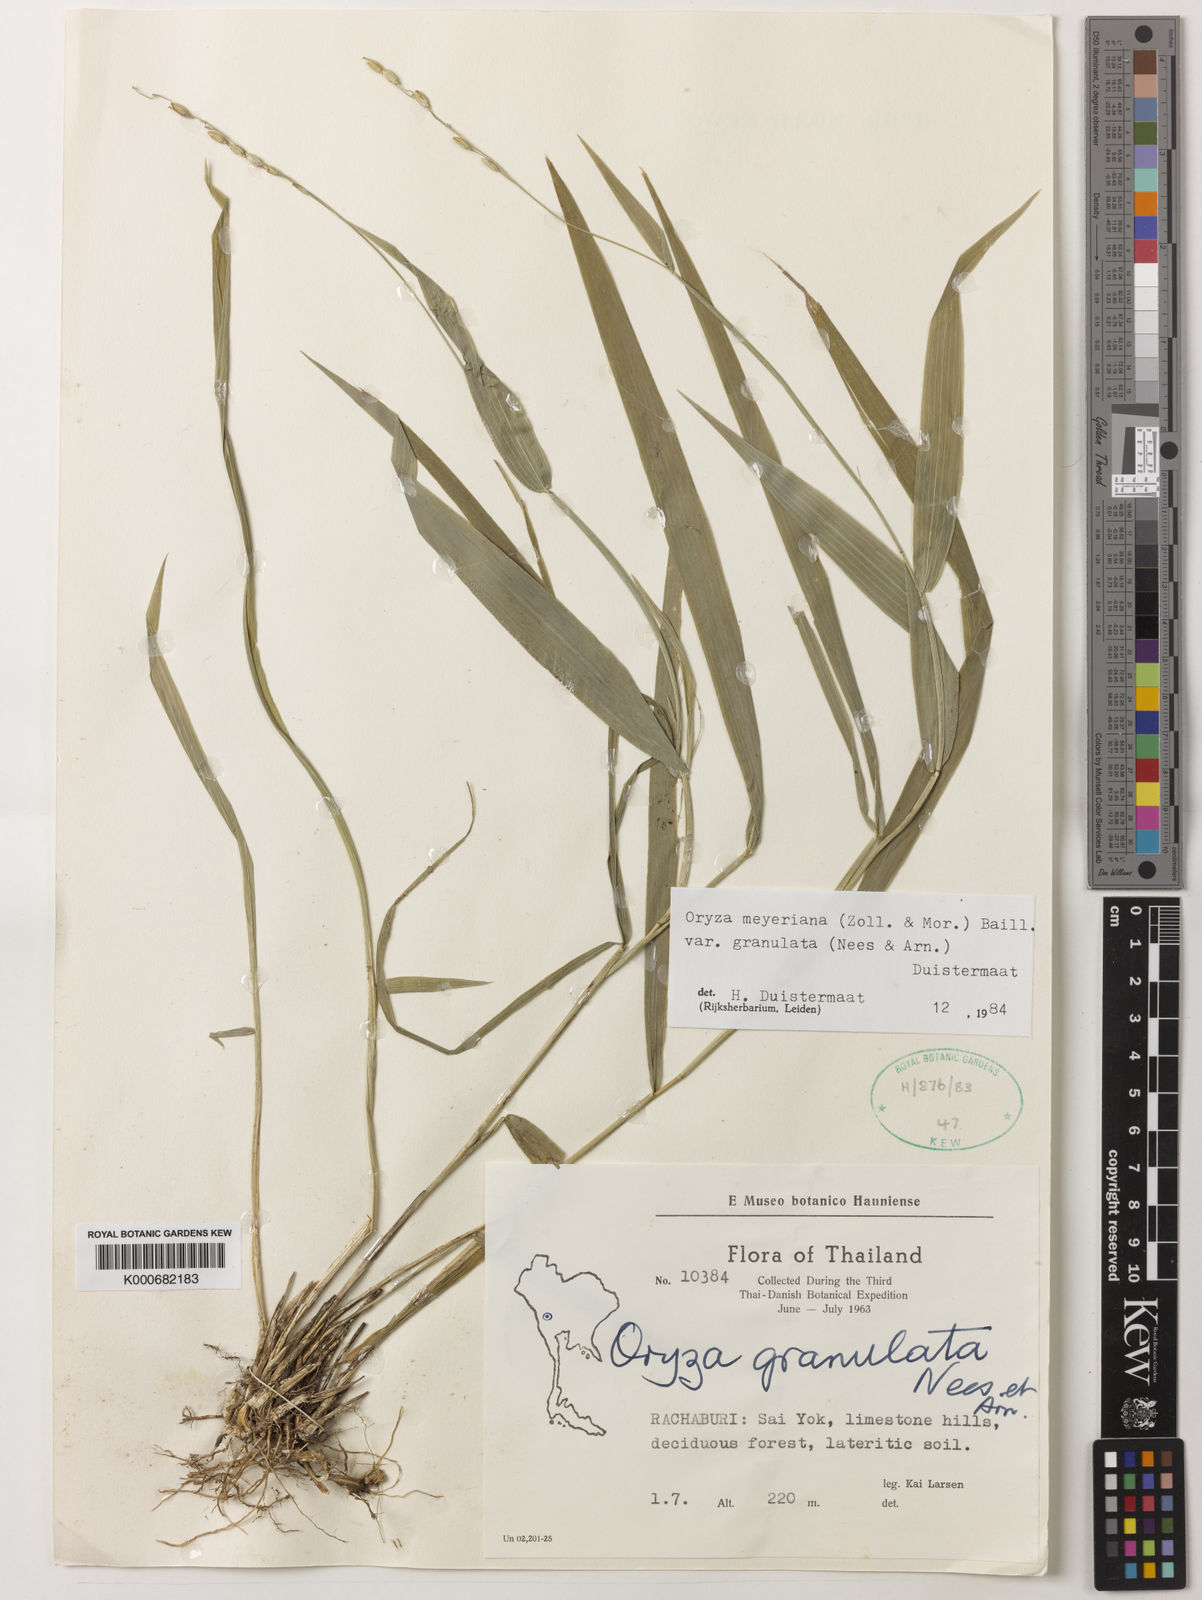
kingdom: Plantae
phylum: Tracheophyta
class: Liliopsida
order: Poales
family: Poaceae
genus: Oryza
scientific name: Oryza meyeriana
